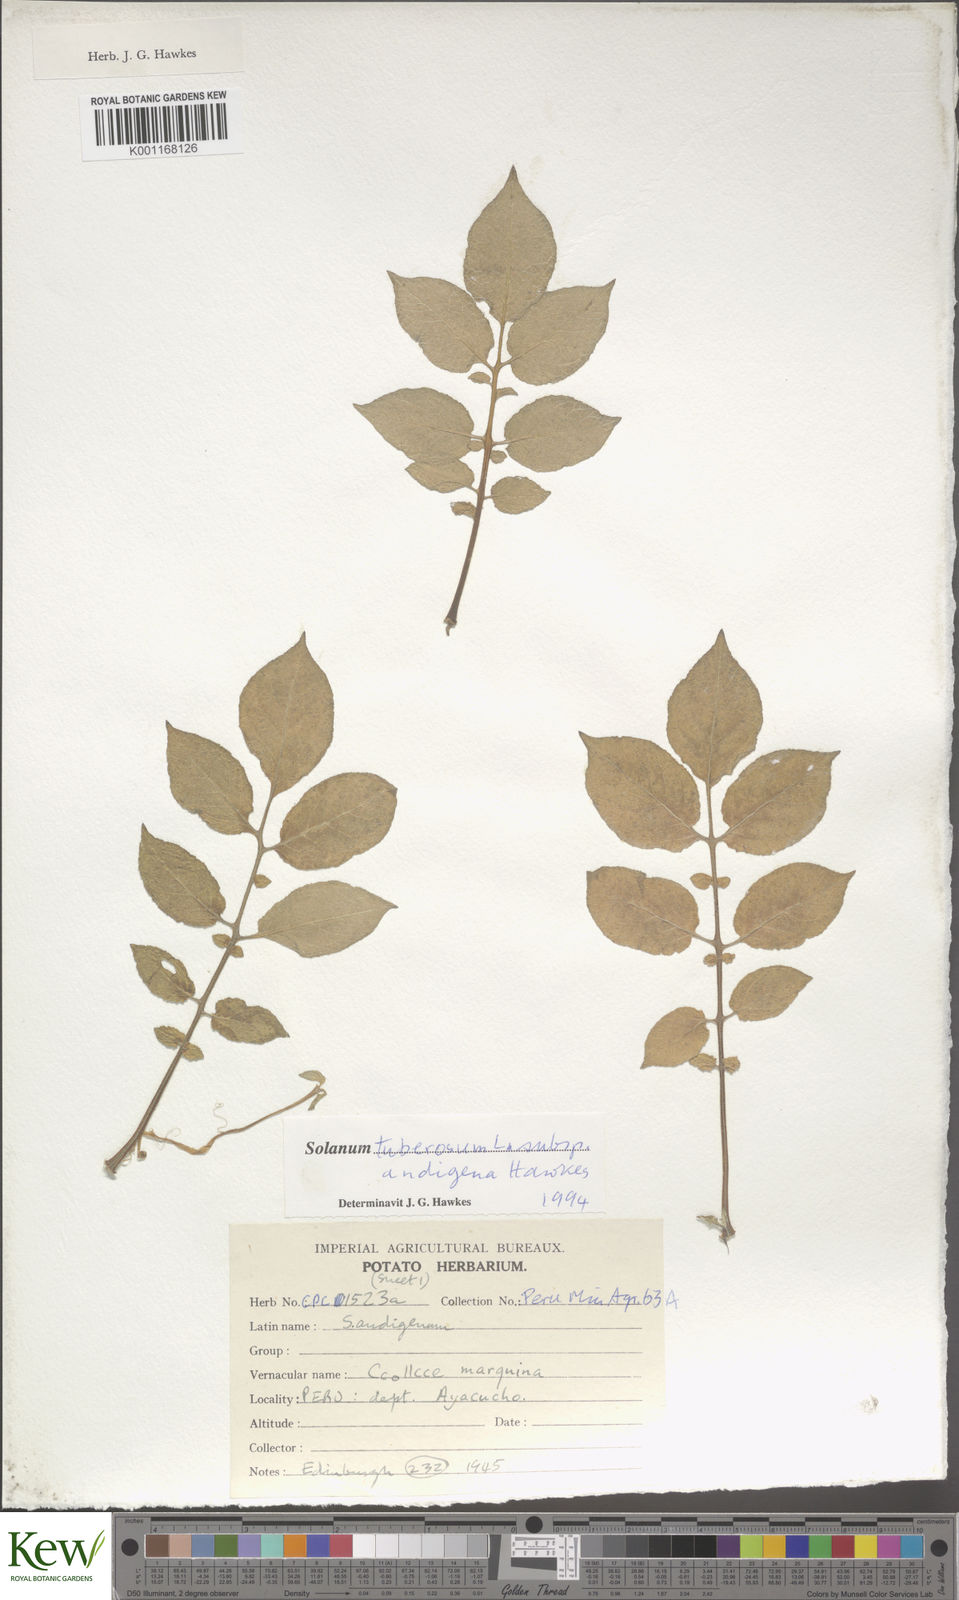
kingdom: Plantae
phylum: Tracheophyta
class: Magnoliopsida
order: Solanales
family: Solanaceae
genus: Solanum
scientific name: Solanum tuberosum
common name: Potato
